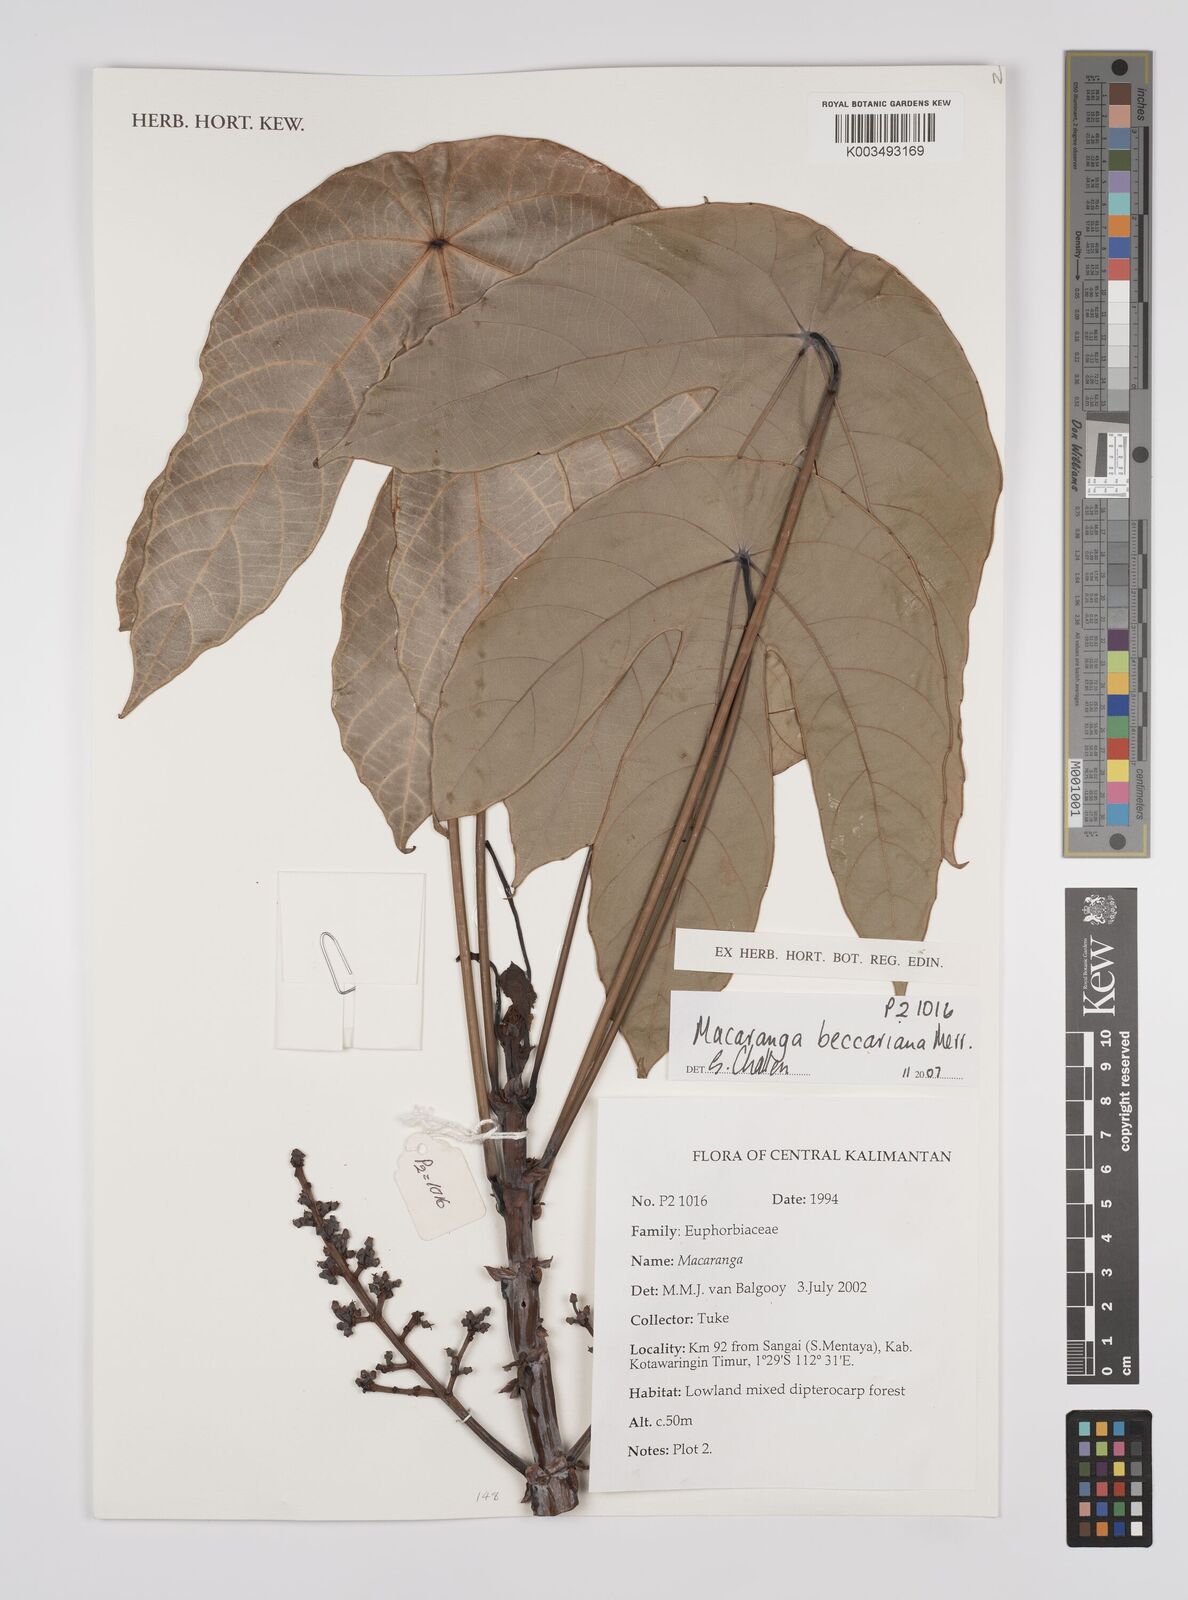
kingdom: Plantae
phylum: Tracheophyta
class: Magnoliopsida
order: Malpighiales
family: Euphorbiaceae
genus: Macaranga
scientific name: Macaranga beccariana
